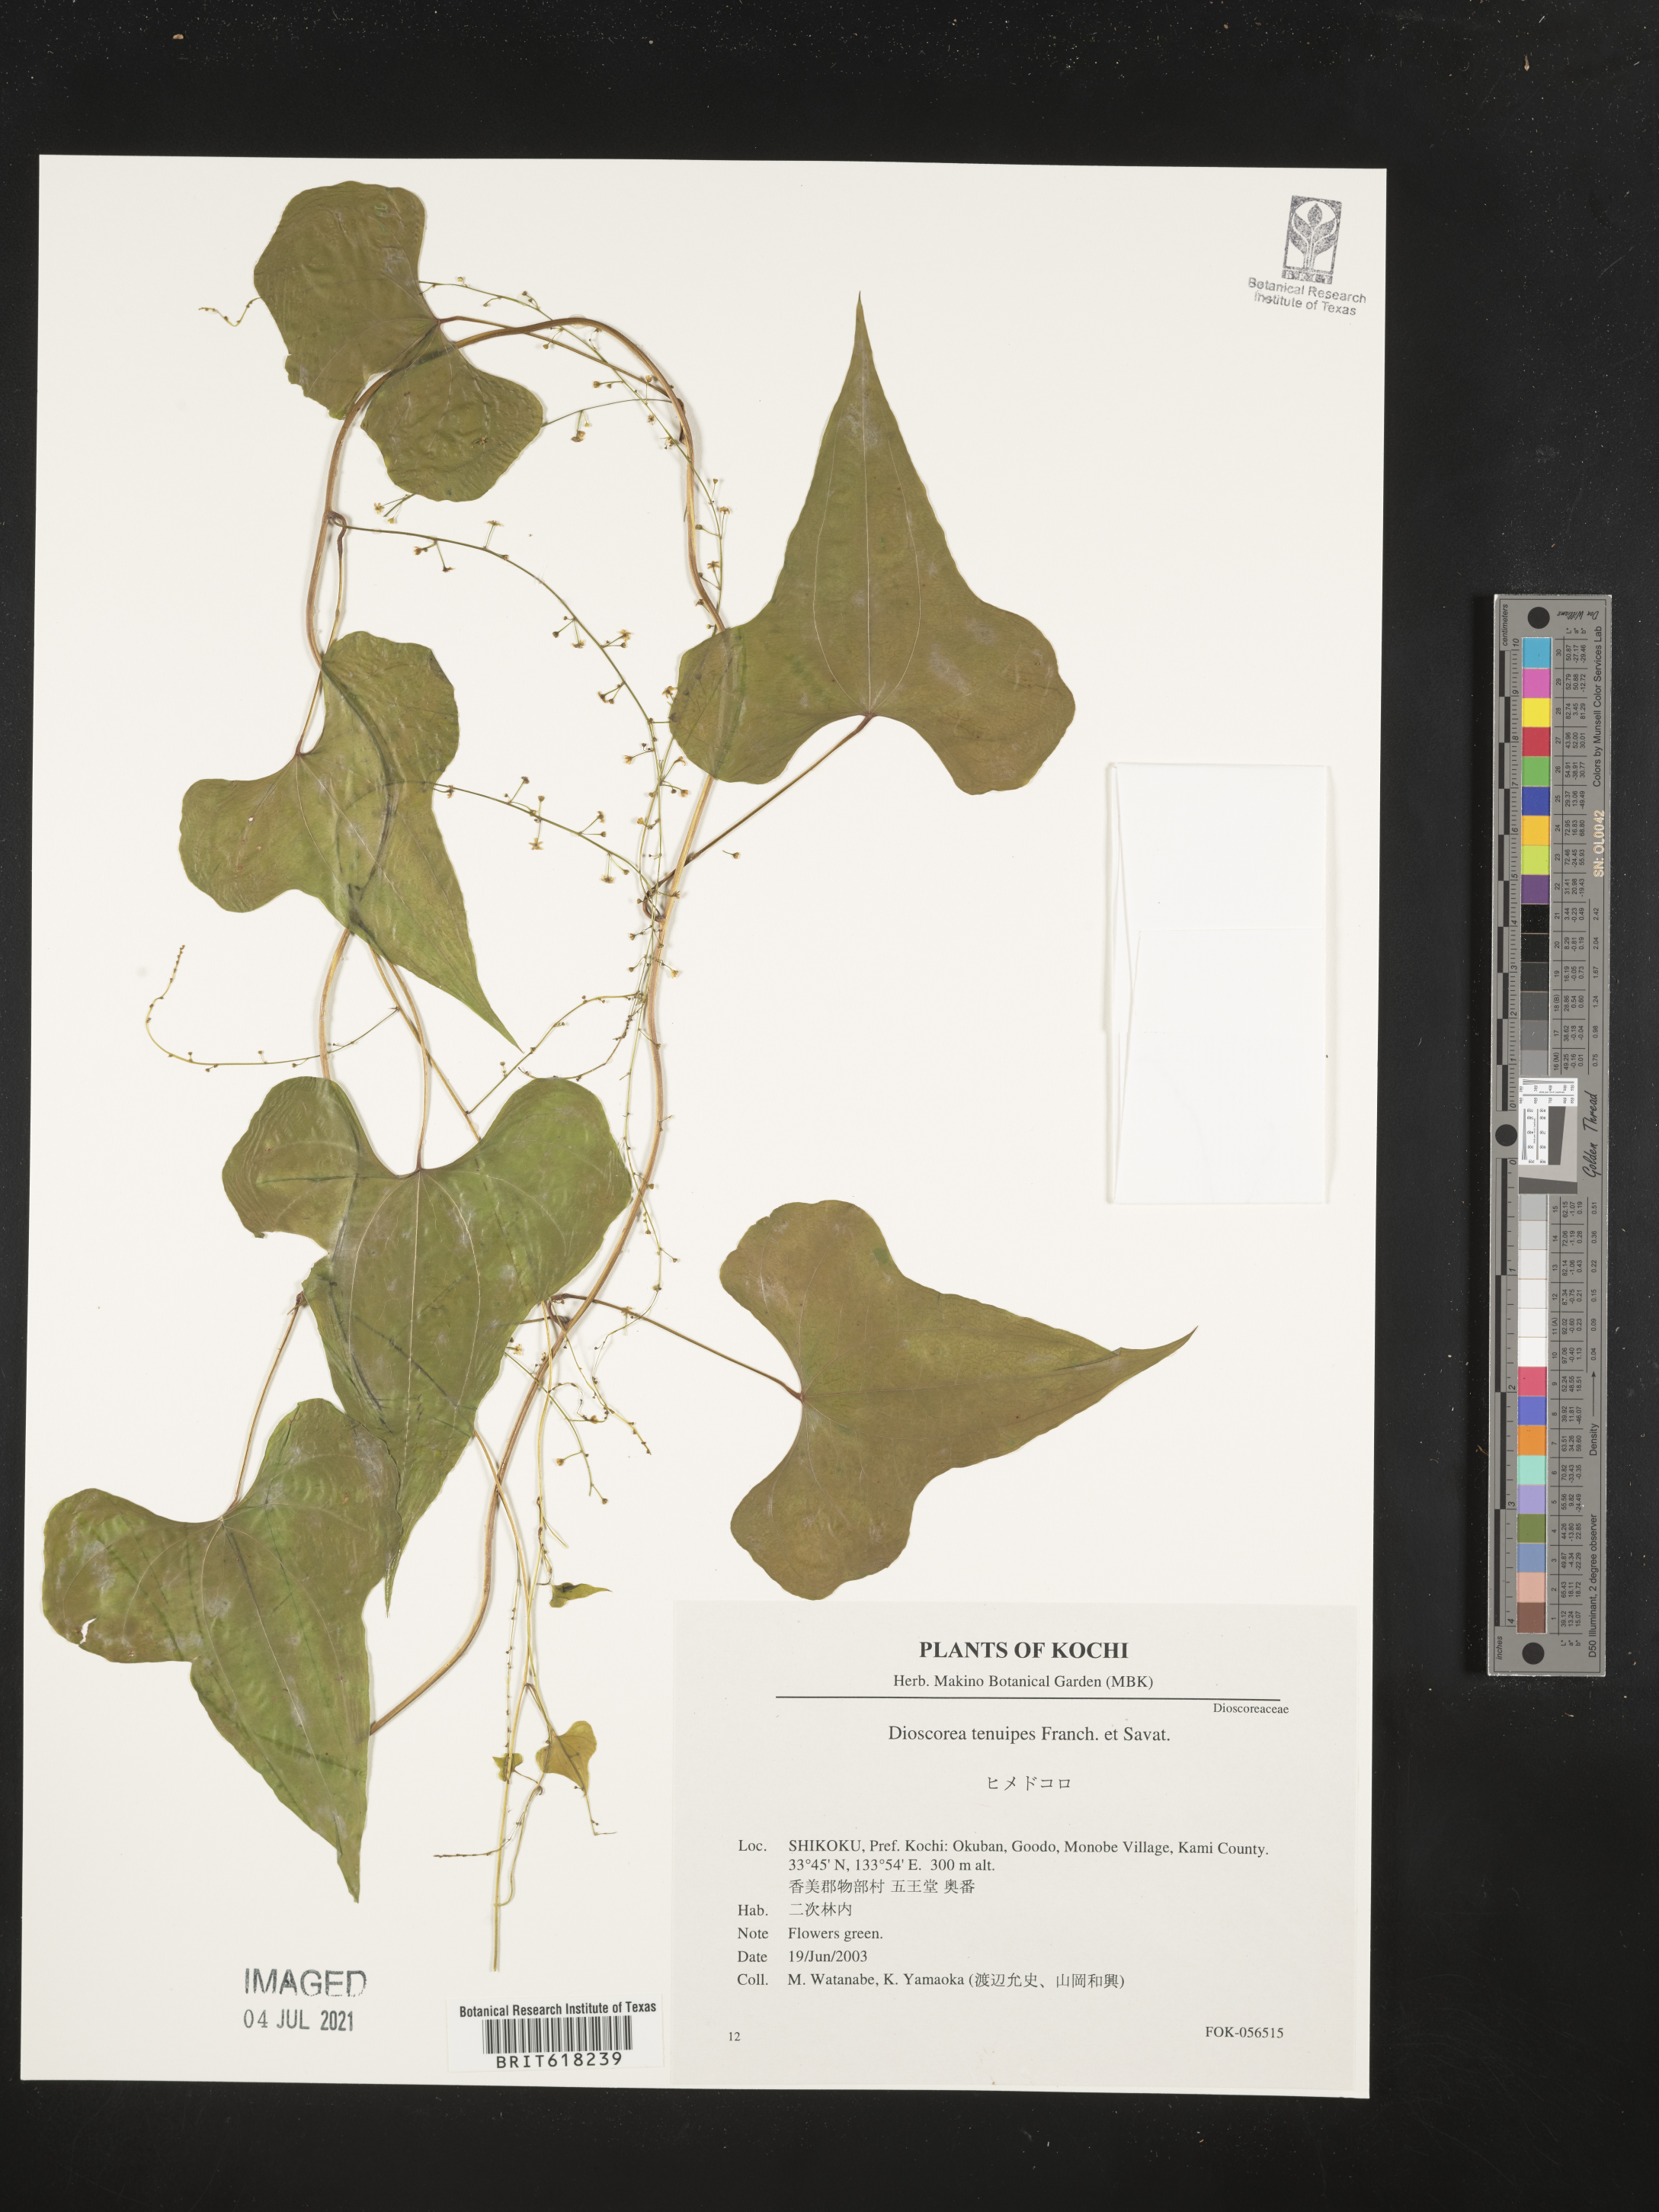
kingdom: Plantae
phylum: Tracheophyta
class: Liliopsida
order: Dioscoreales
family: Dioscoreaceae
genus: Dioscorea
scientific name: Dioscorea tenuipes
